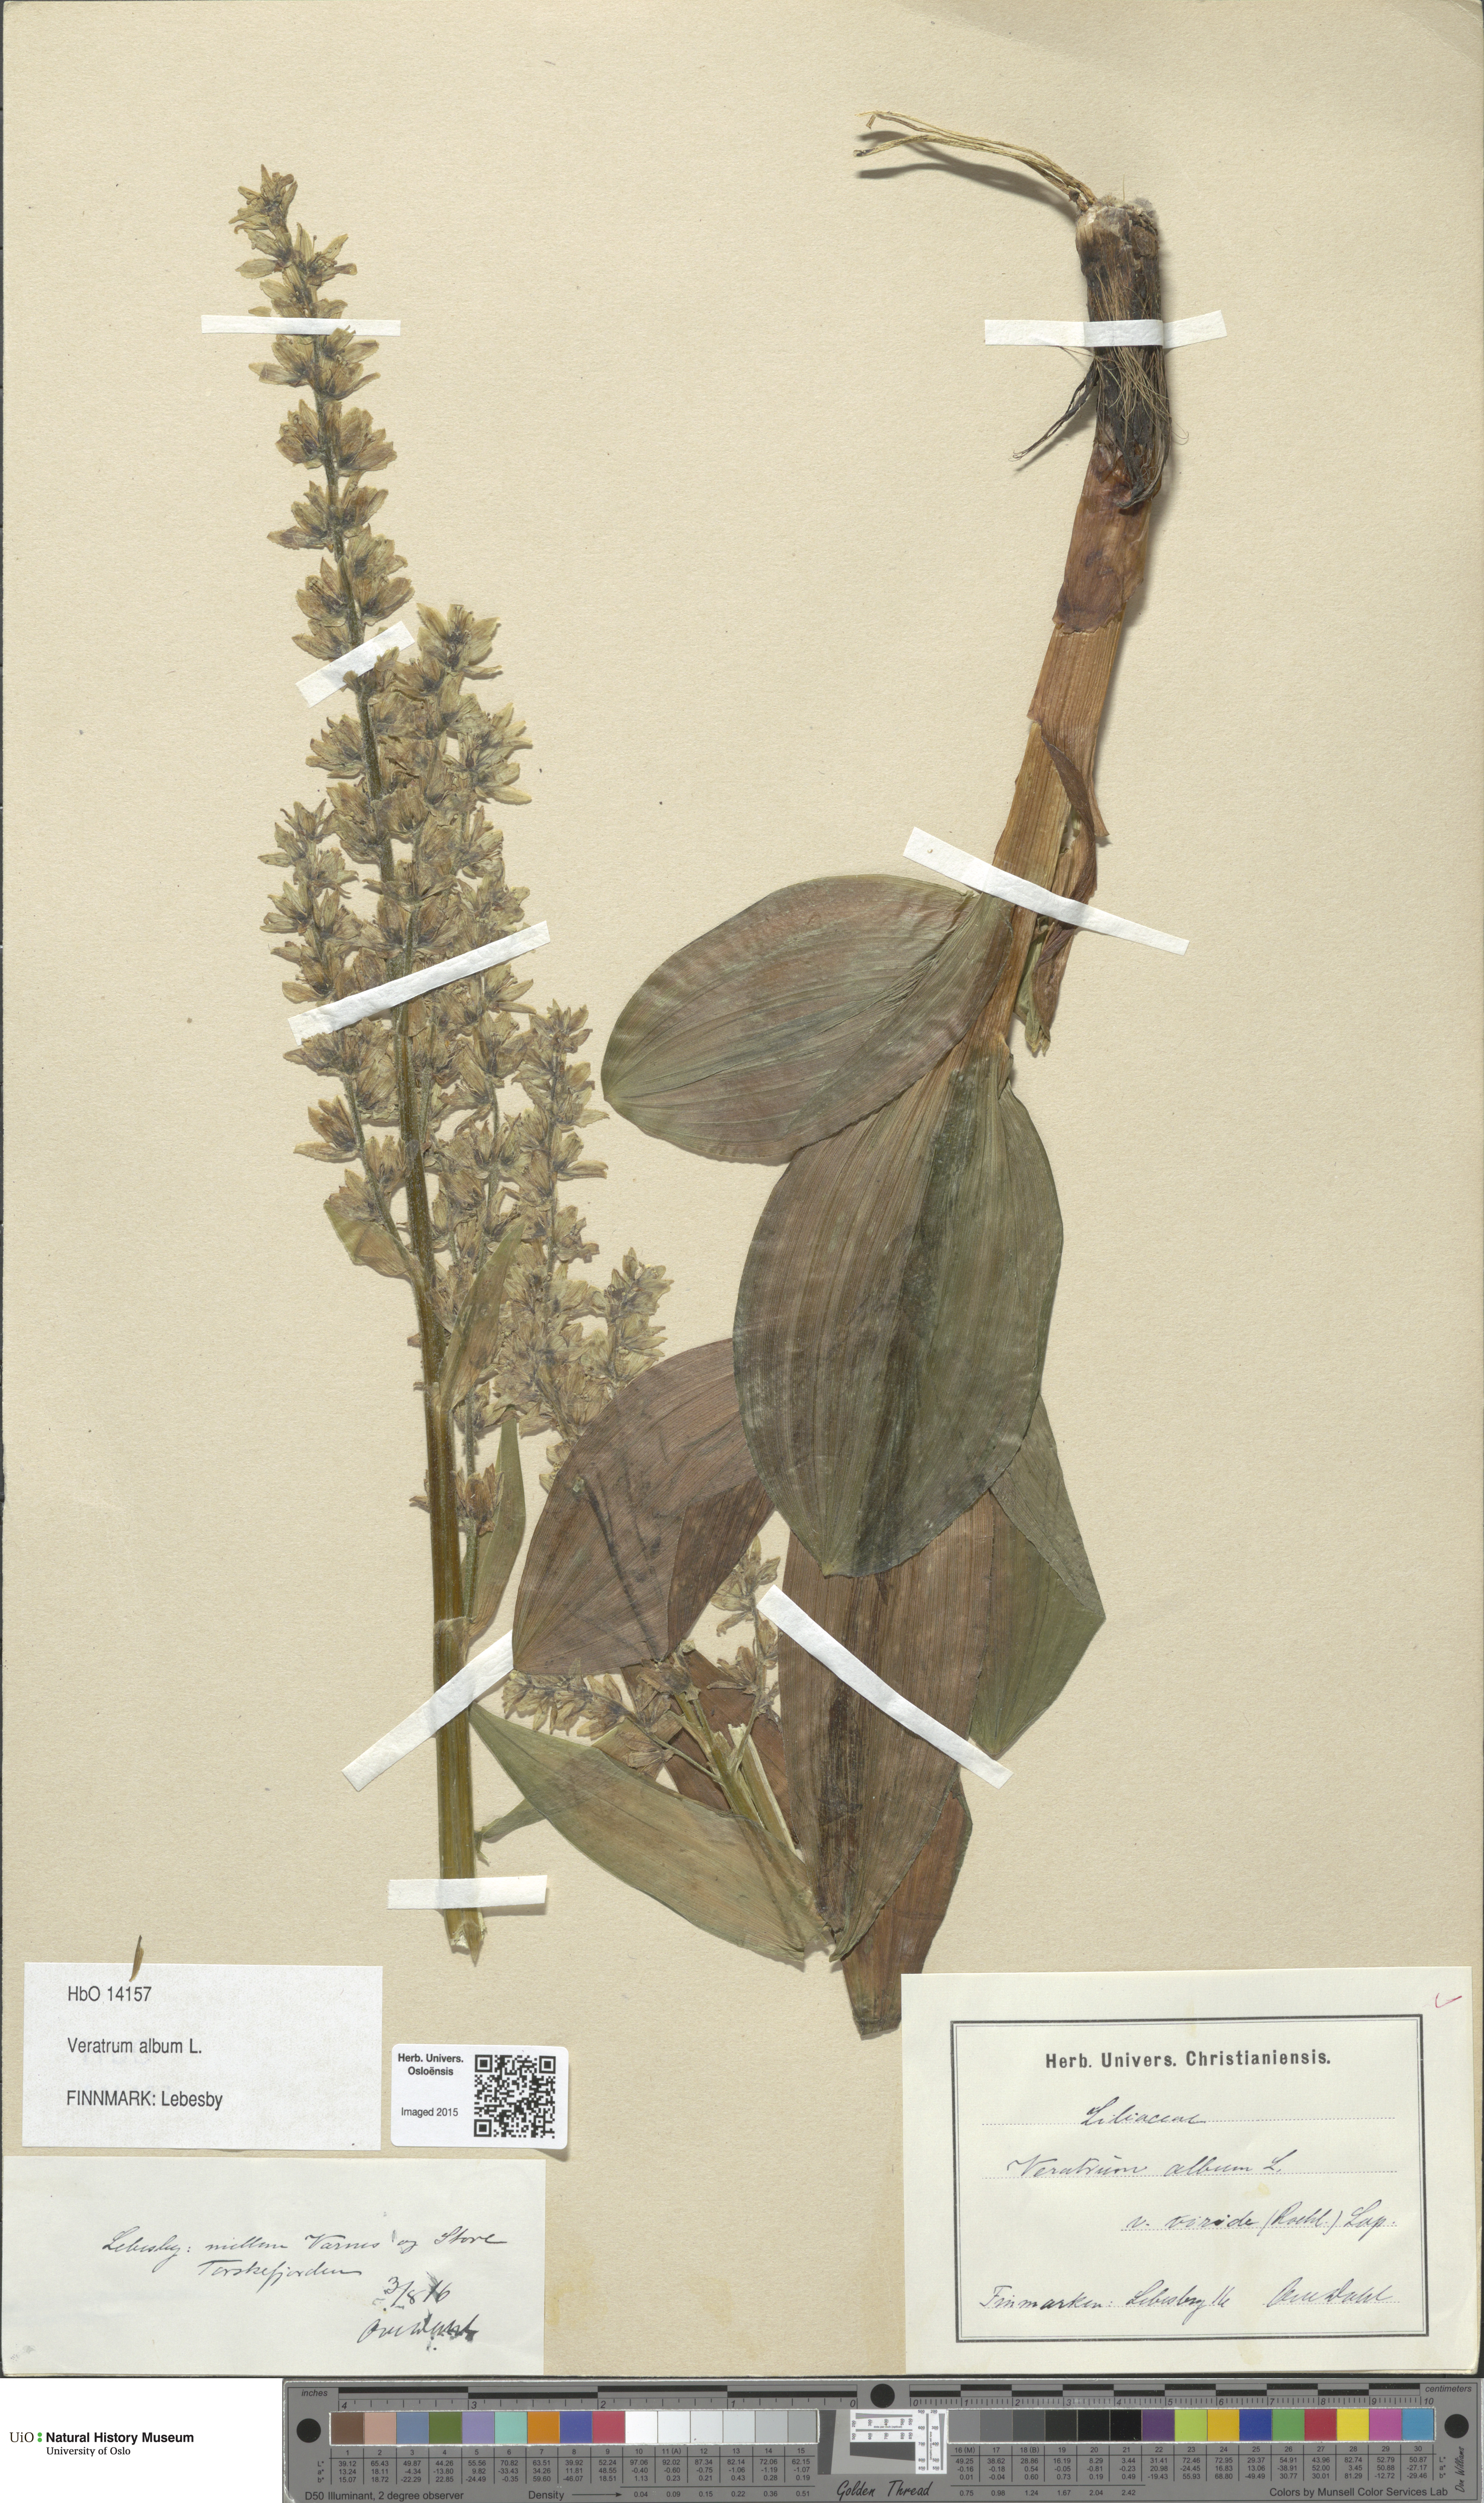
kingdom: Plantae
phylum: Tracheophyta
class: Liliopsida
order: Liliales
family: Melanthiaceae
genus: Veratrum
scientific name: Veratrum album
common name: White veratrum
